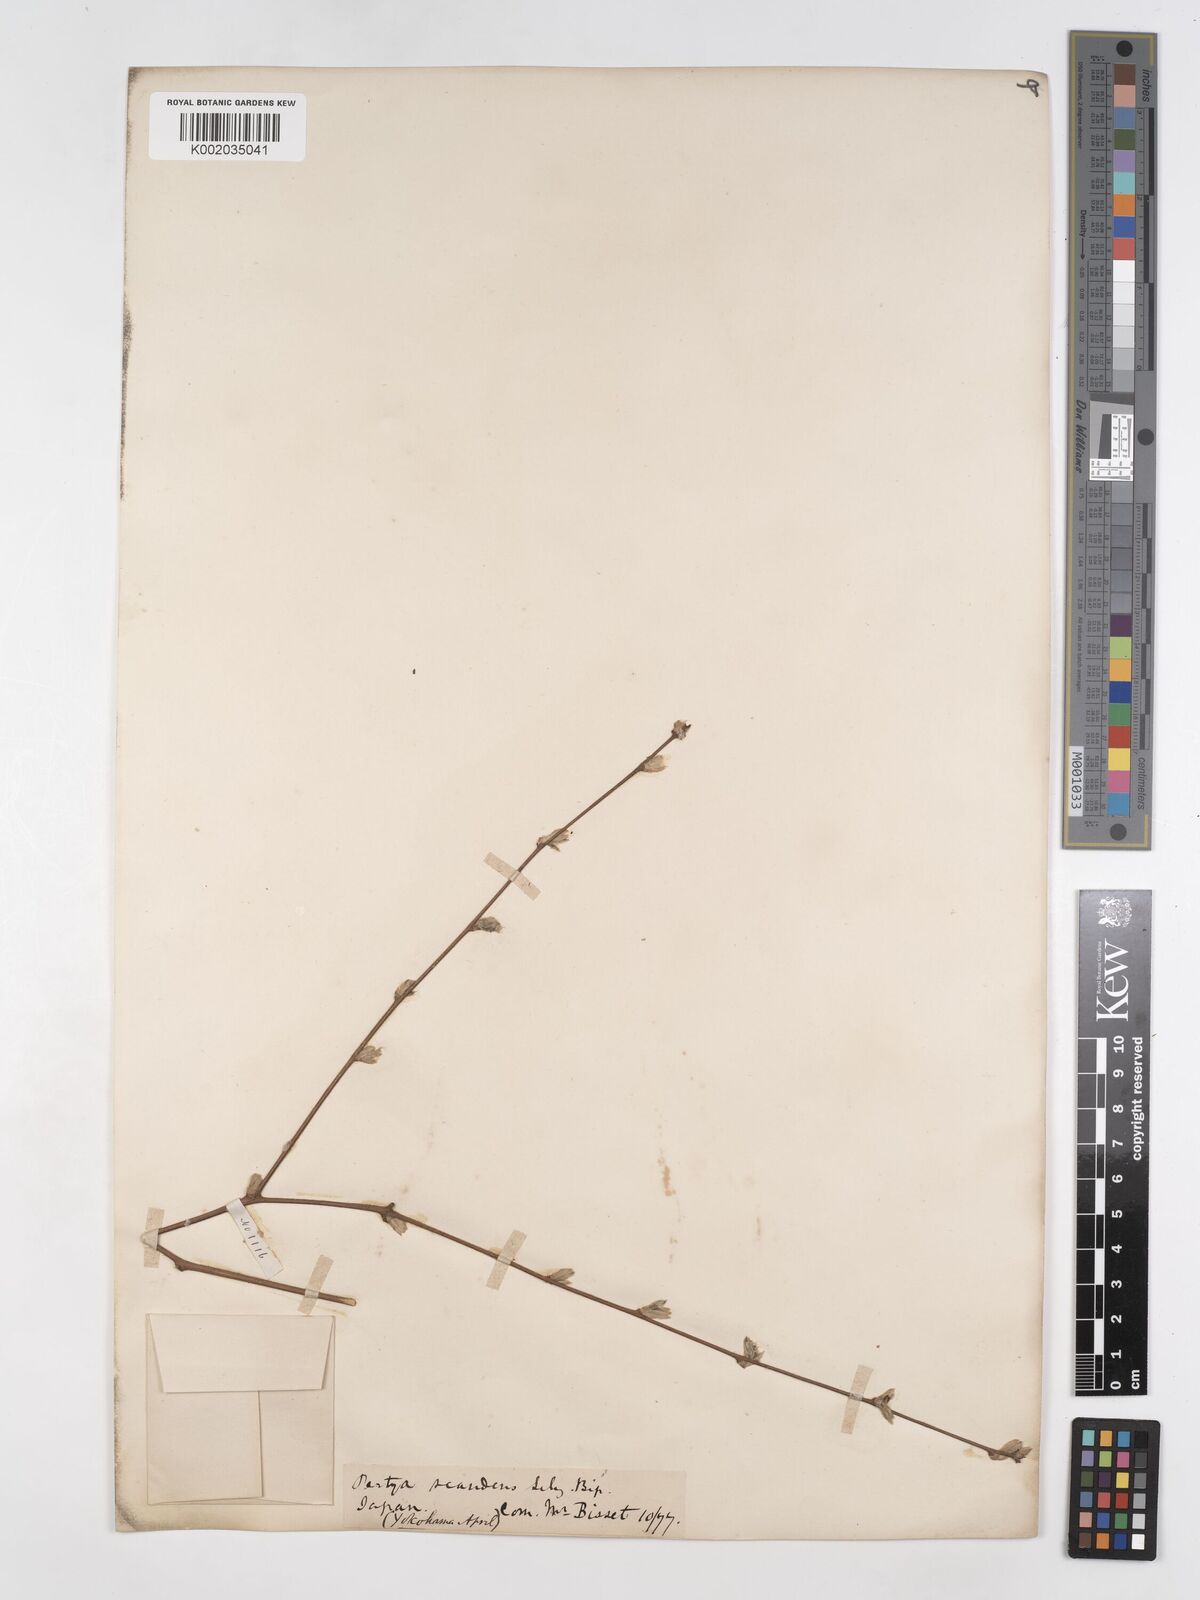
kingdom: Plantae
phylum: Tracheophyta
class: Magnoliopsida
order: Asterales
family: Asteraceae
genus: Pertya
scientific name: Pertya scandens
